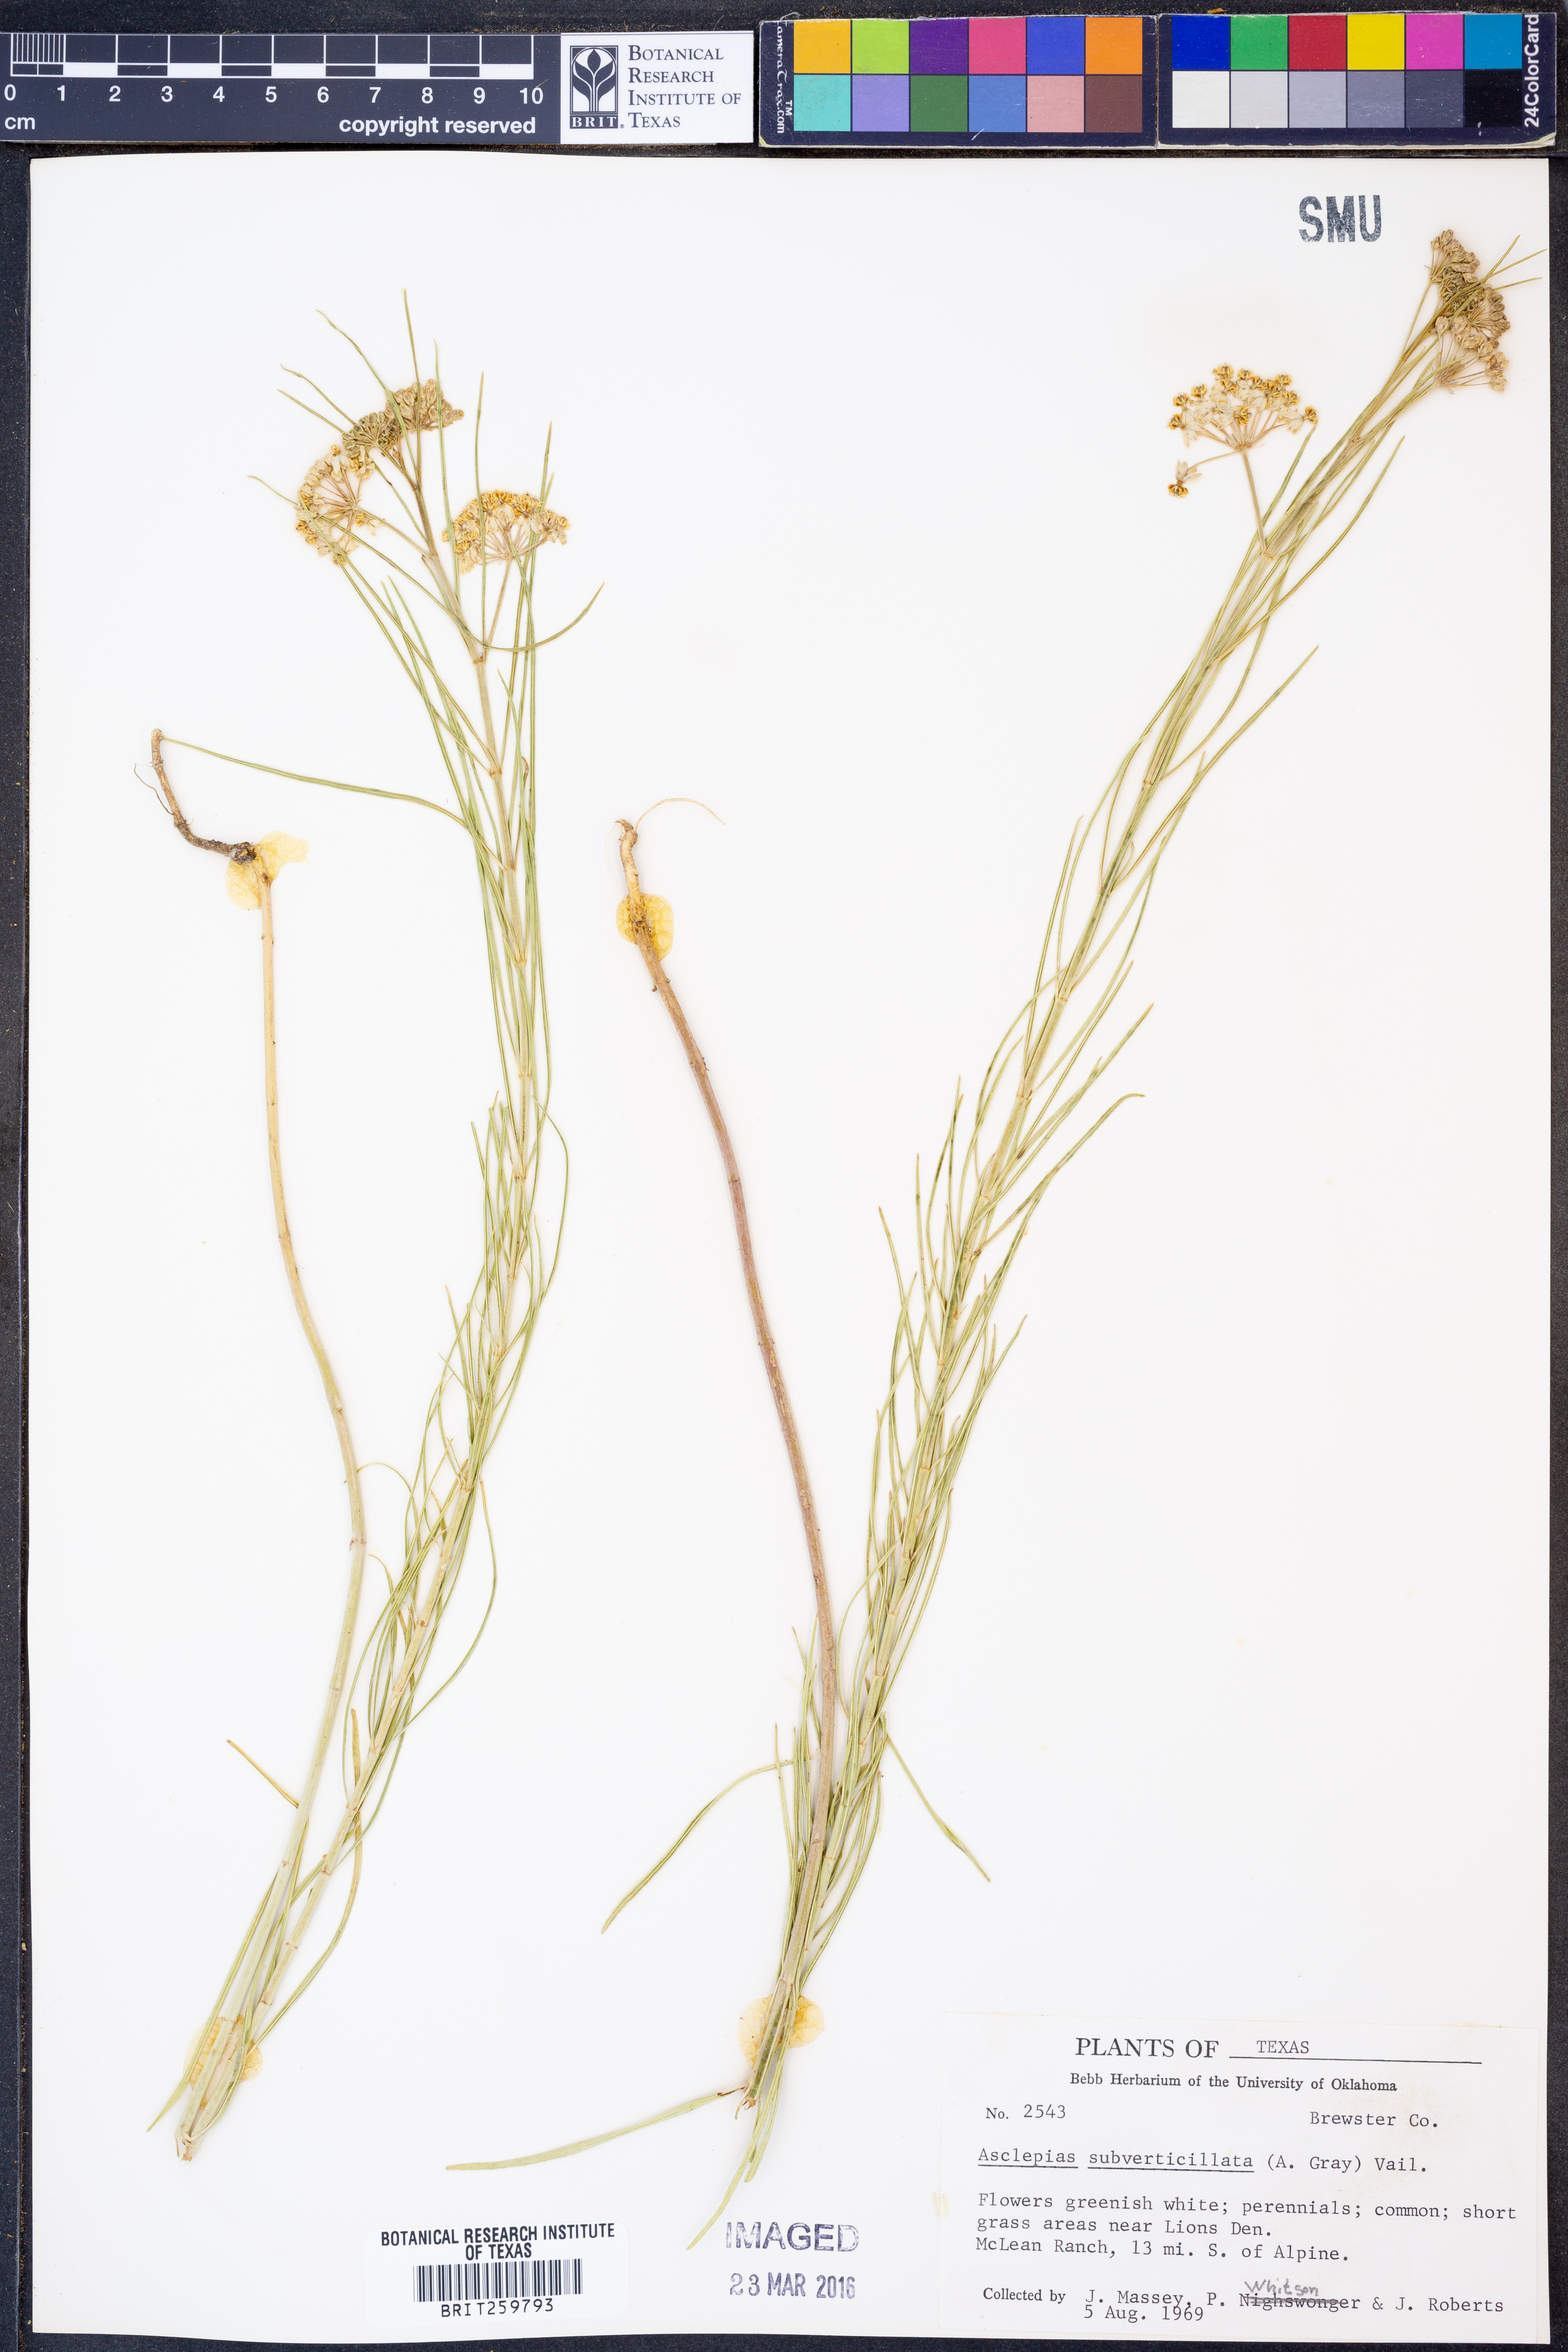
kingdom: Plantae
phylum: Tracheophyta
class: Magnoliopsida
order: Gentianales
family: Apocynaceae
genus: Asclepias
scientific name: Asclepias subverticillata
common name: Horsetail milkweed
